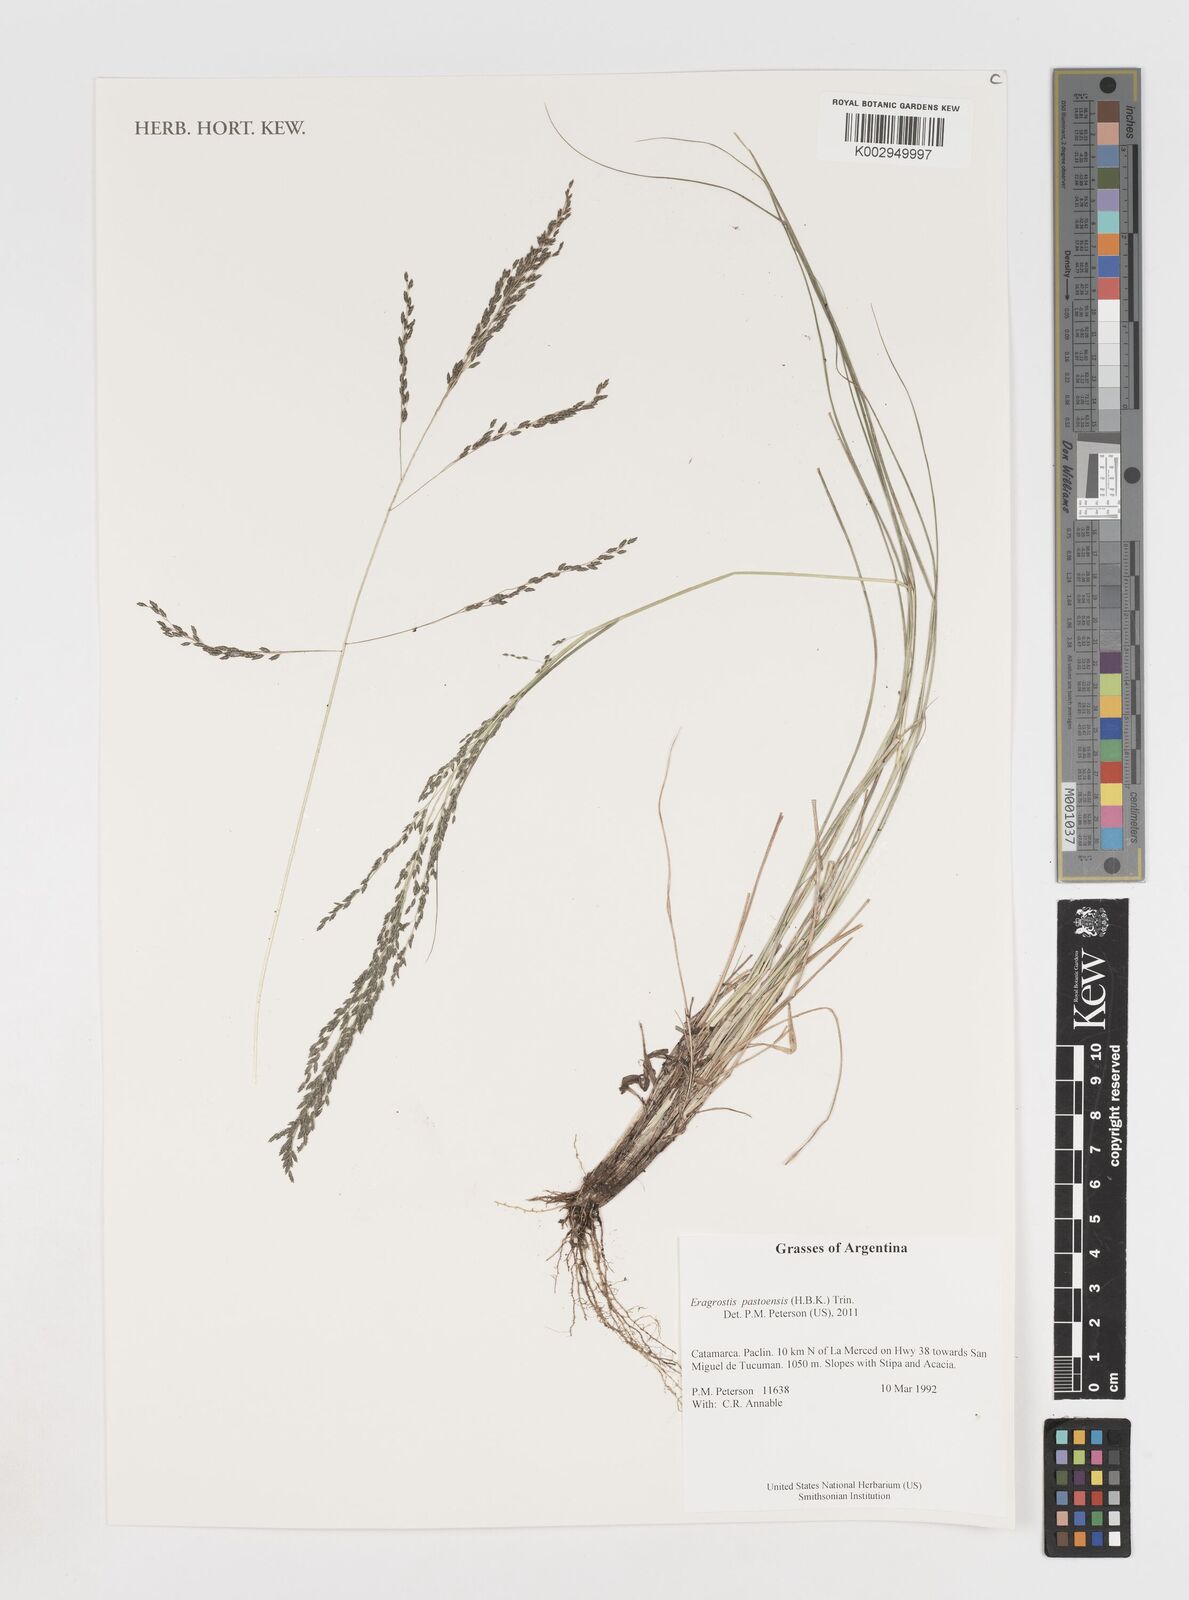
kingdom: Plantae
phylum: Tracheophyta
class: Liliopsida
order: Poales
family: Poaceae
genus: Eragrostis
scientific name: Eragrostis pastoensis
